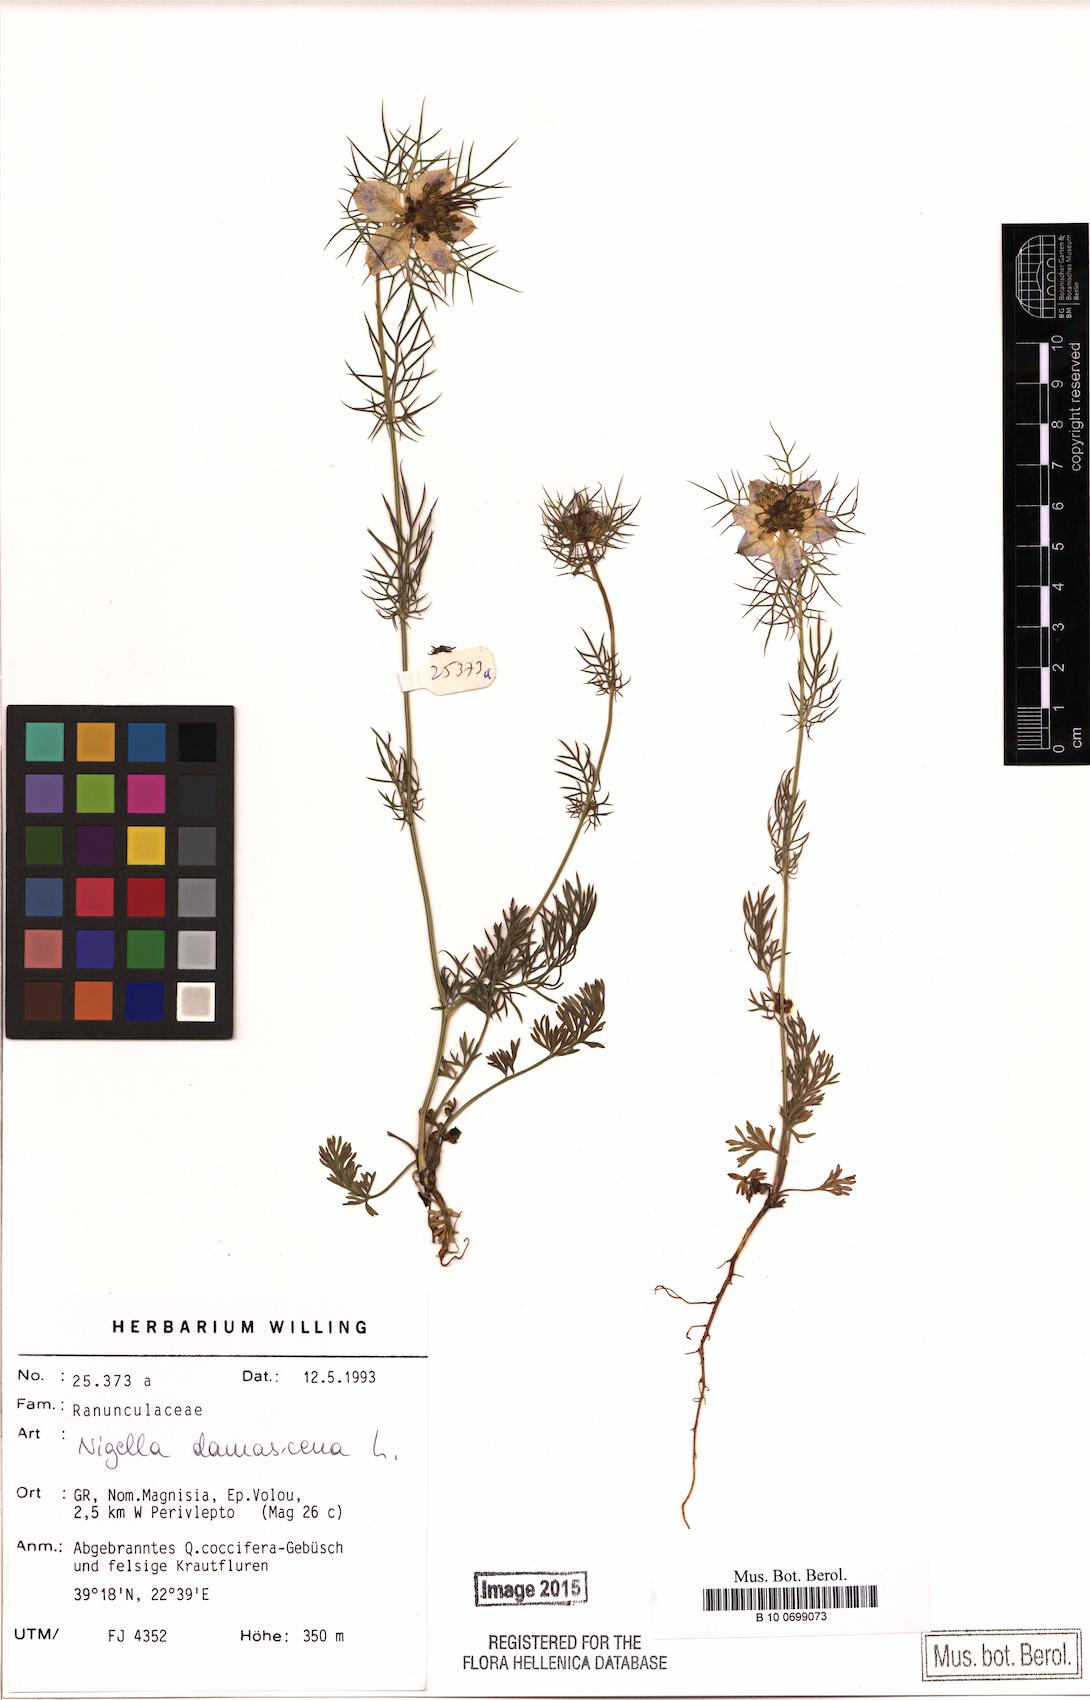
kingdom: Plantae
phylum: Tracheophyta
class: Magnoliopsida
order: Ranunculales
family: Ranunculaceae
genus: Nigella
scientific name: Nigella damascena
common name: Love-in-a-mist
